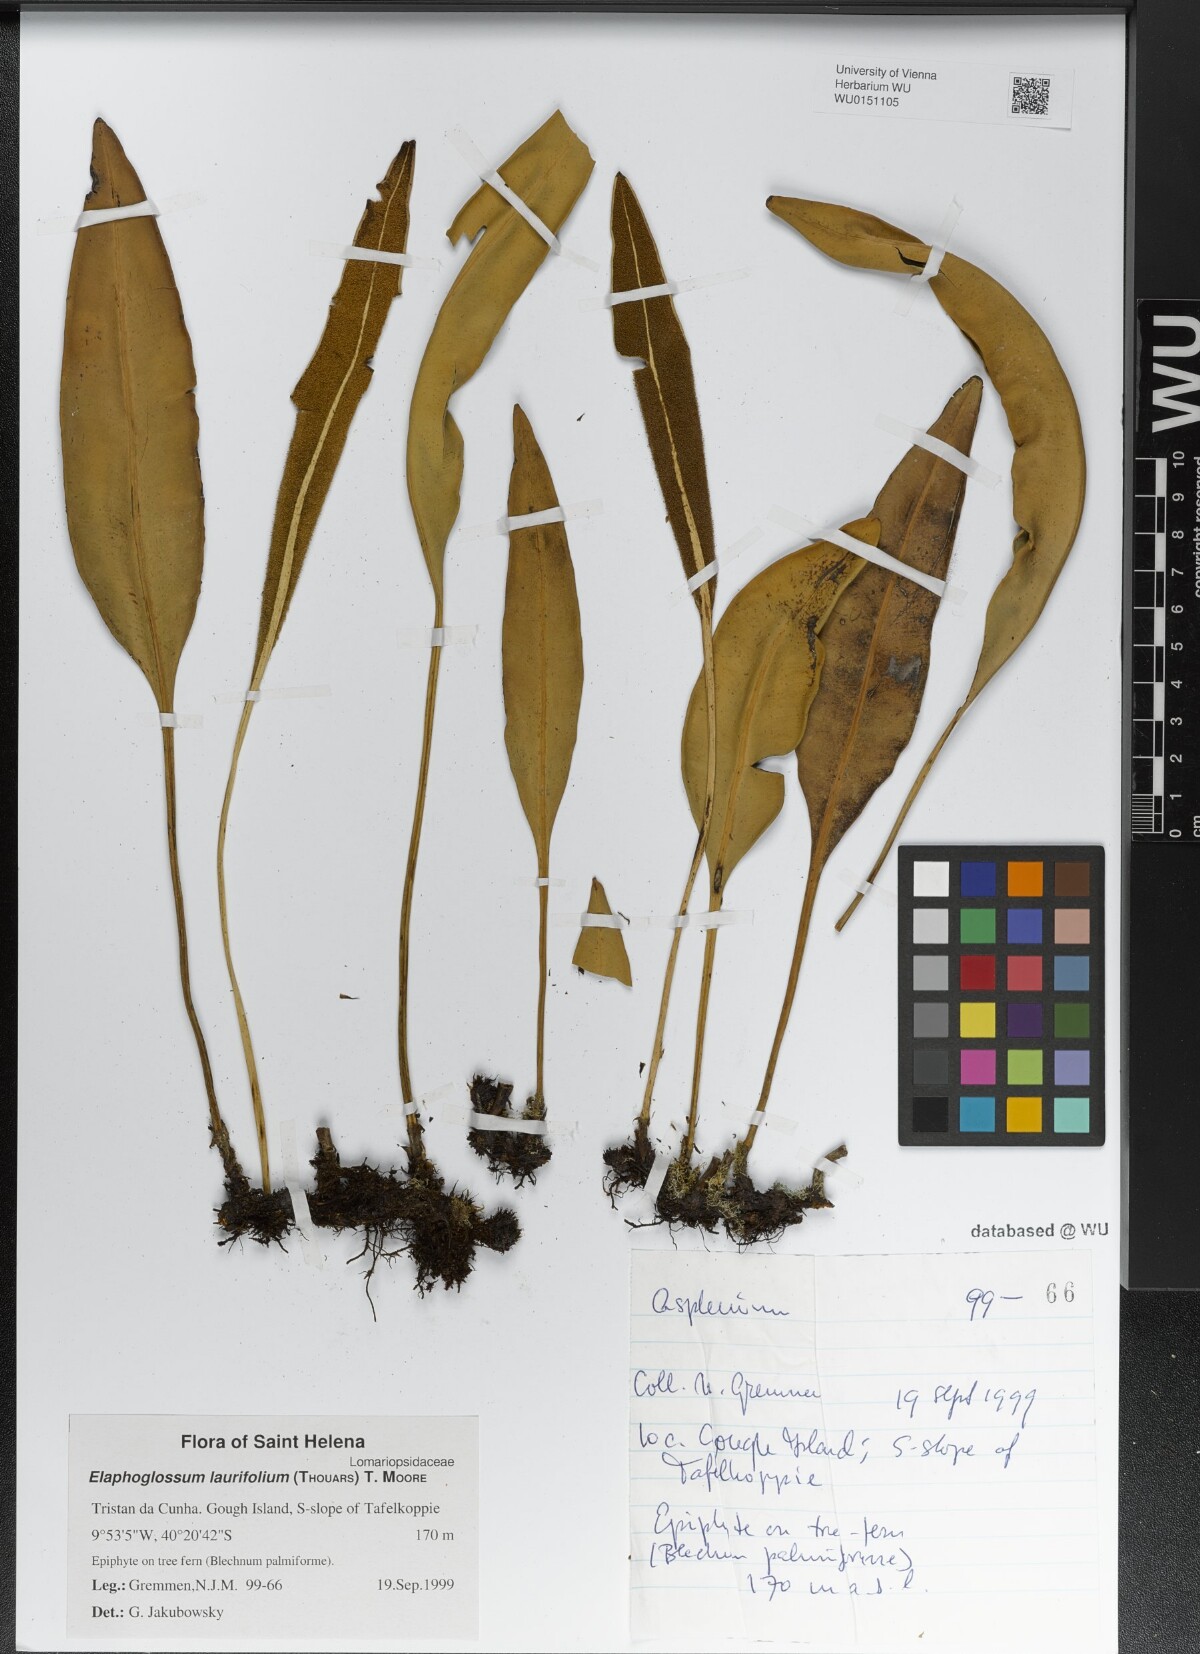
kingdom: Plantae
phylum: Tracheophyta
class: Polypodiopsida
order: Polypodiales
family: Dryopteridaceae
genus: Elaphoglossum
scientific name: Elaphoglossum laurifolium
